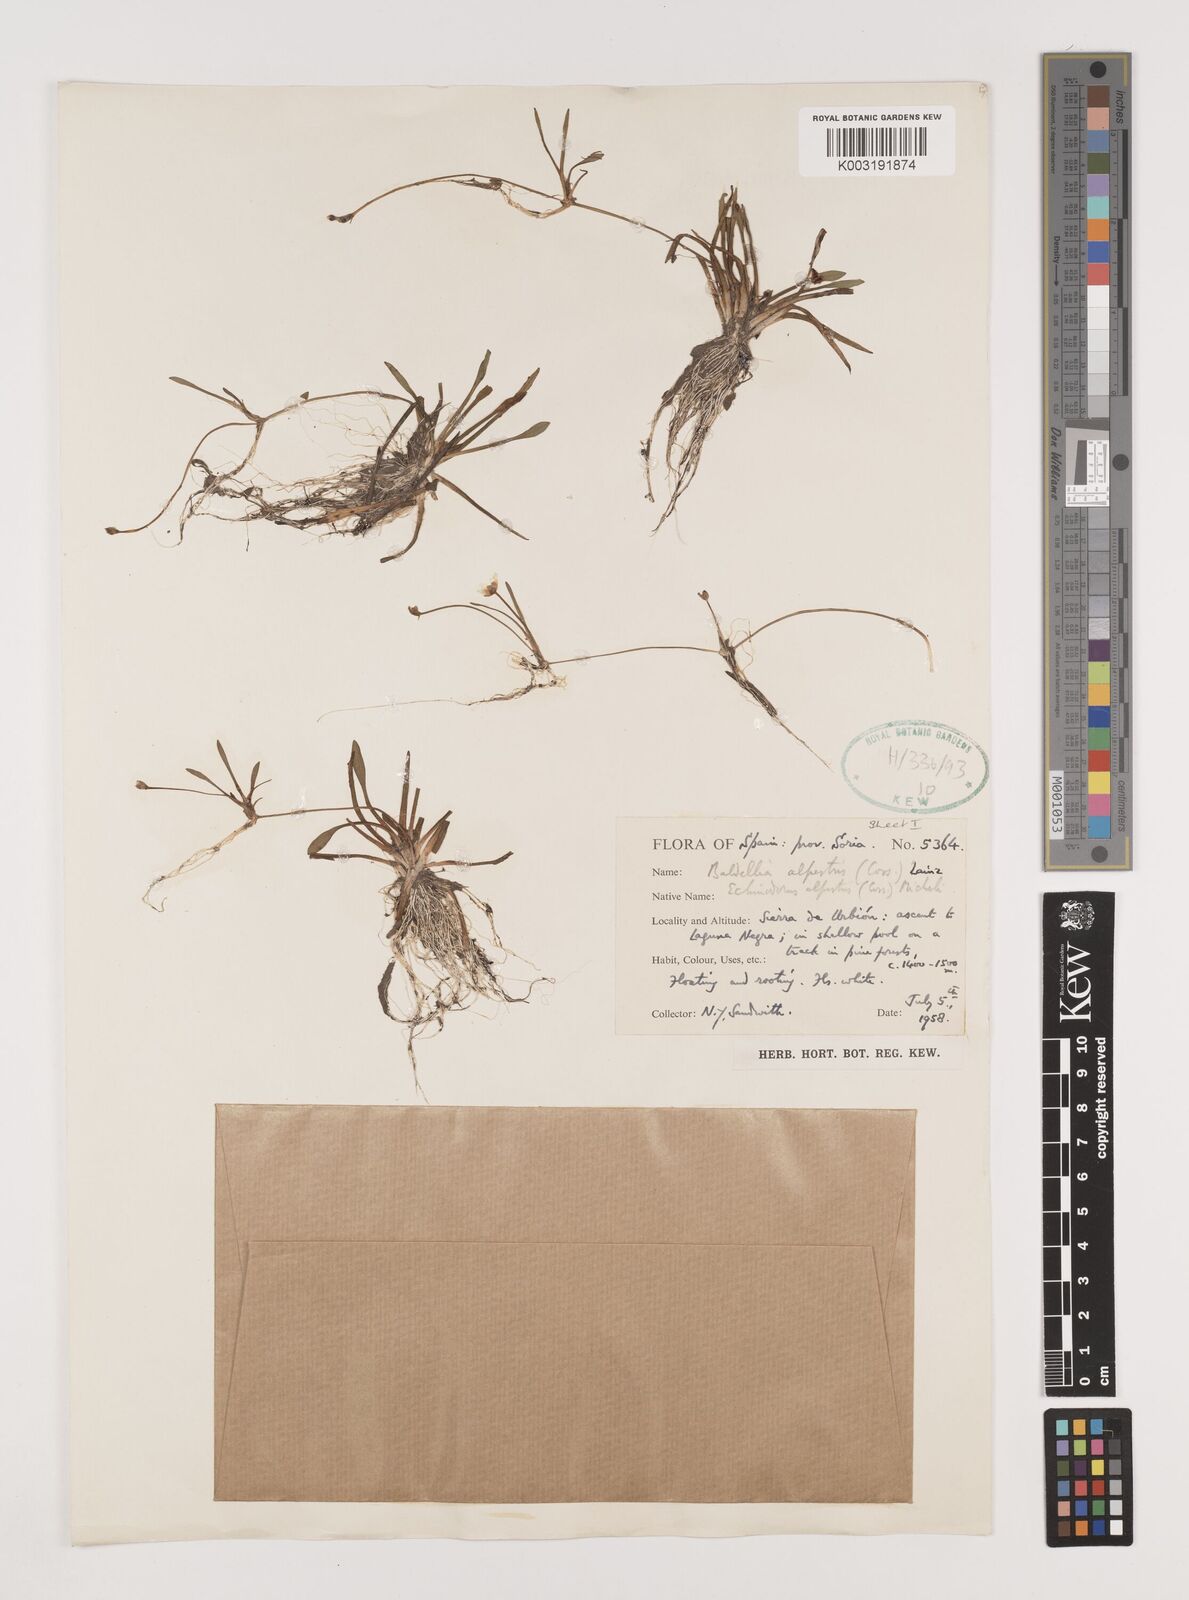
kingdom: Plantae
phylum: Tracheophyta
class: Liliopsida
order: Alismatales
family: Alismataceae
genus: Baldellia
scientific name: Baldellia alpestris
